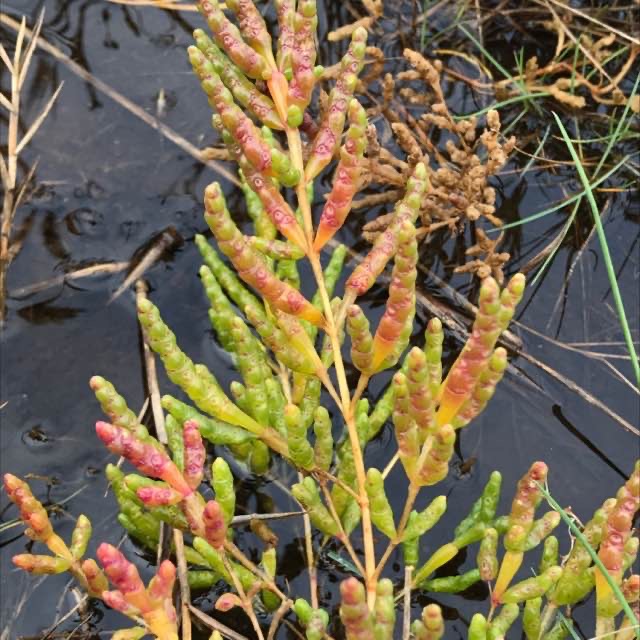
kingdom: Plantae
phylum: Tracheophyta
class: Magnoliopsida
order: Caryophyllales
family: Amaranthaceae
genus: Salicornia
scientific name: Salicornia europaea
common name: Almindelig salturt
